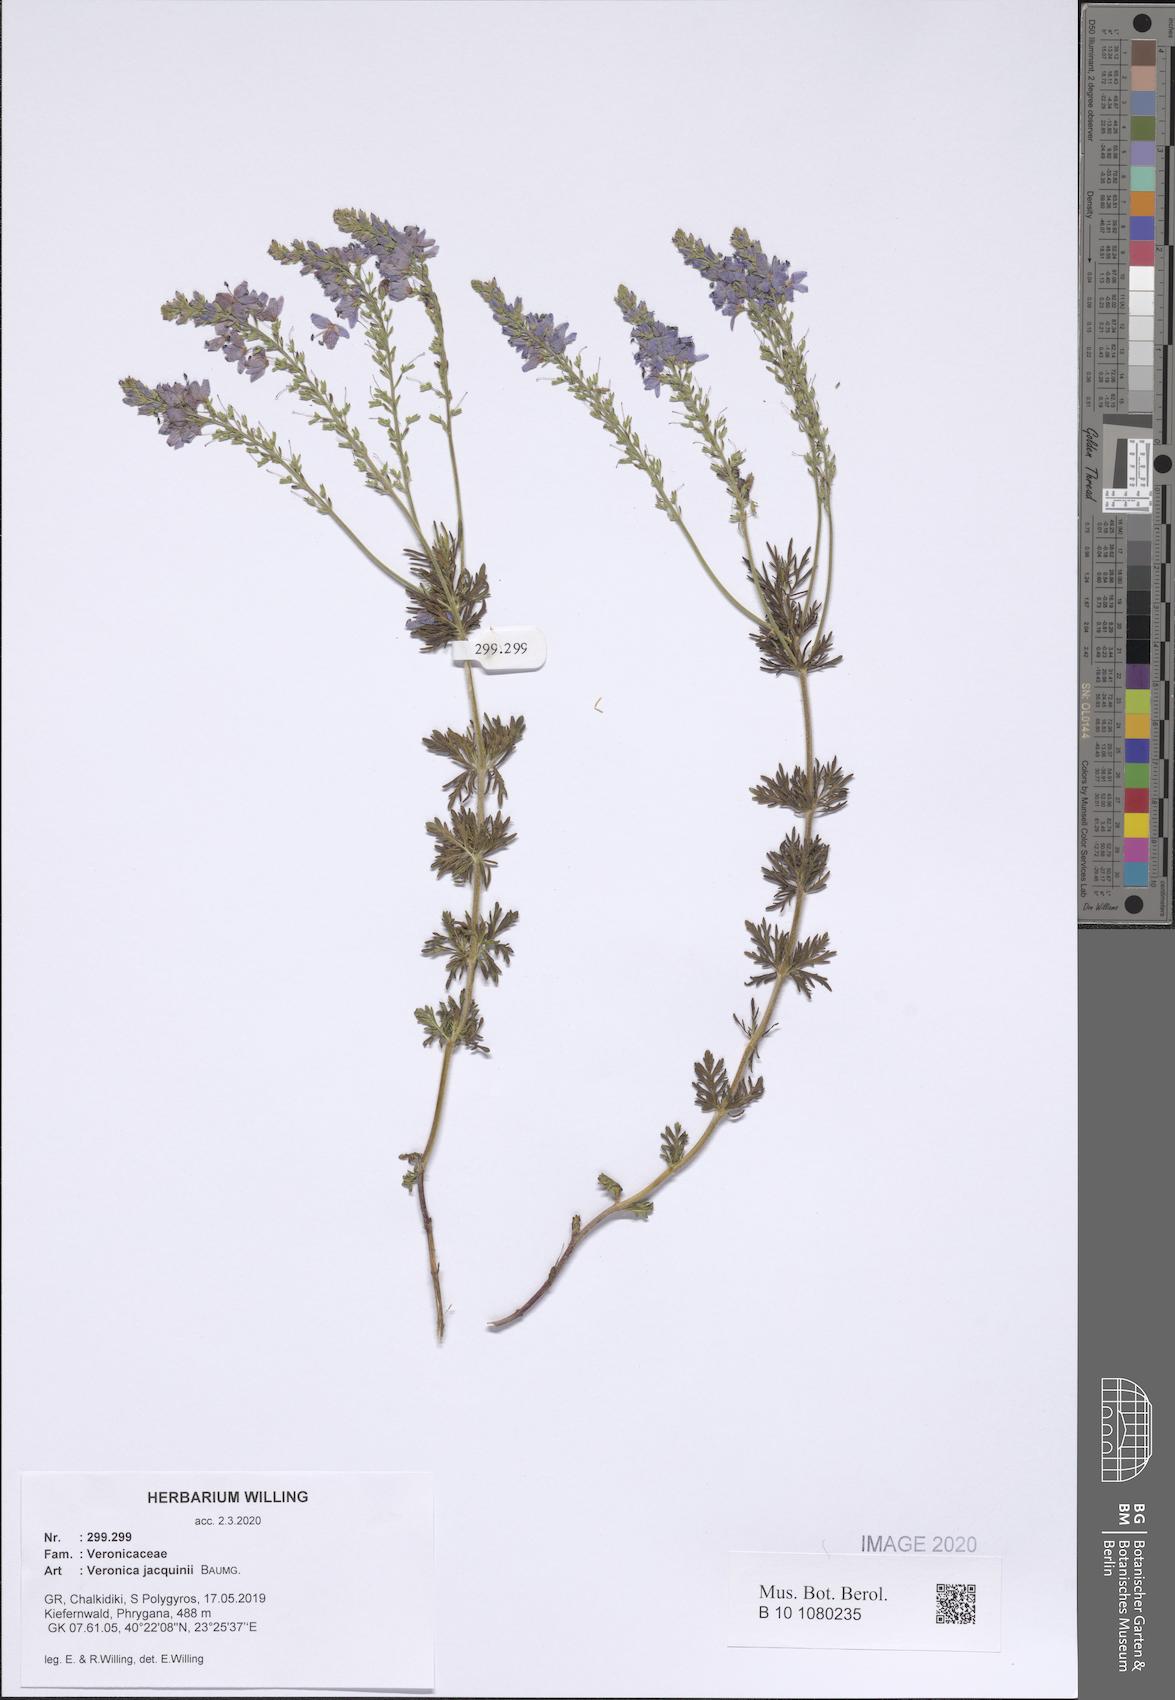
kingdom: Plantae
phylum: Tracheophyta
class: Magnoliopsida
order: Lamiales
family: Plantaginaceae
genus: Veronica
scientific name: Veronica austriaca
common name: Large speedwell
